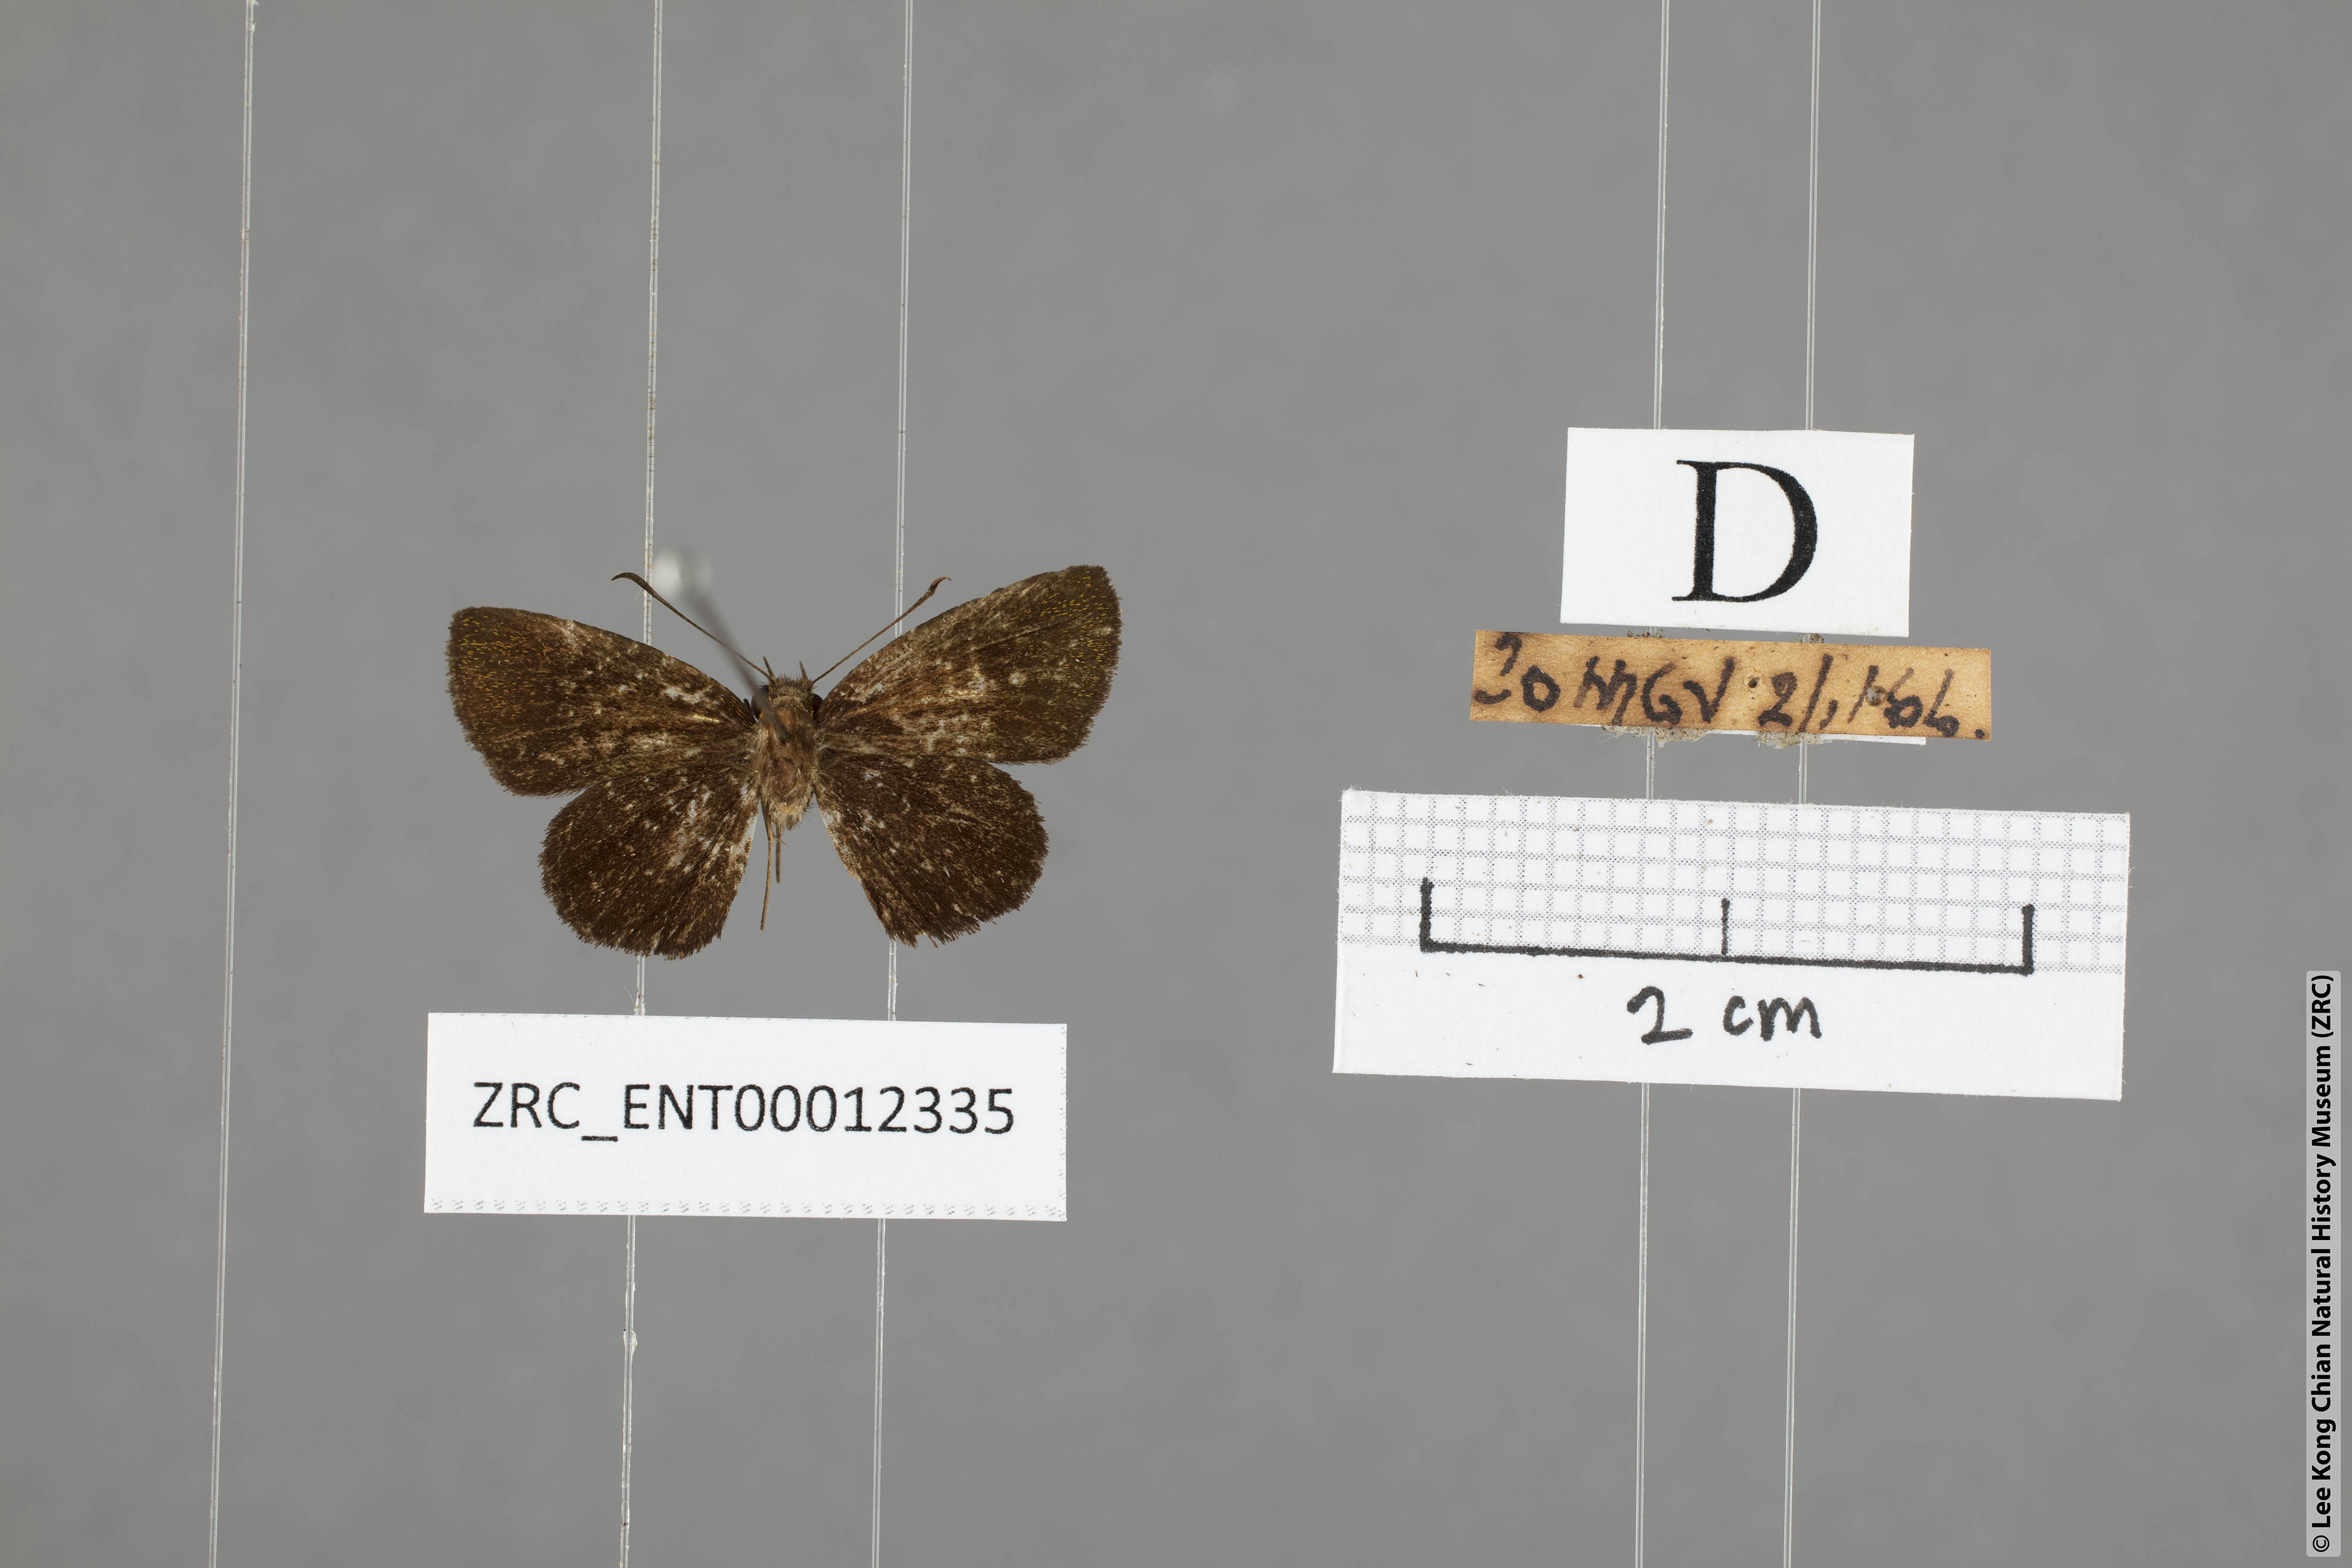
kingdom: Animalia
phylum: Arthropoda
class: Insecta
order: Lepidoptera
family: Hesperiidae
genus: Arnetta
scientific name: Arnetta verones
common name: Sumatran bob
